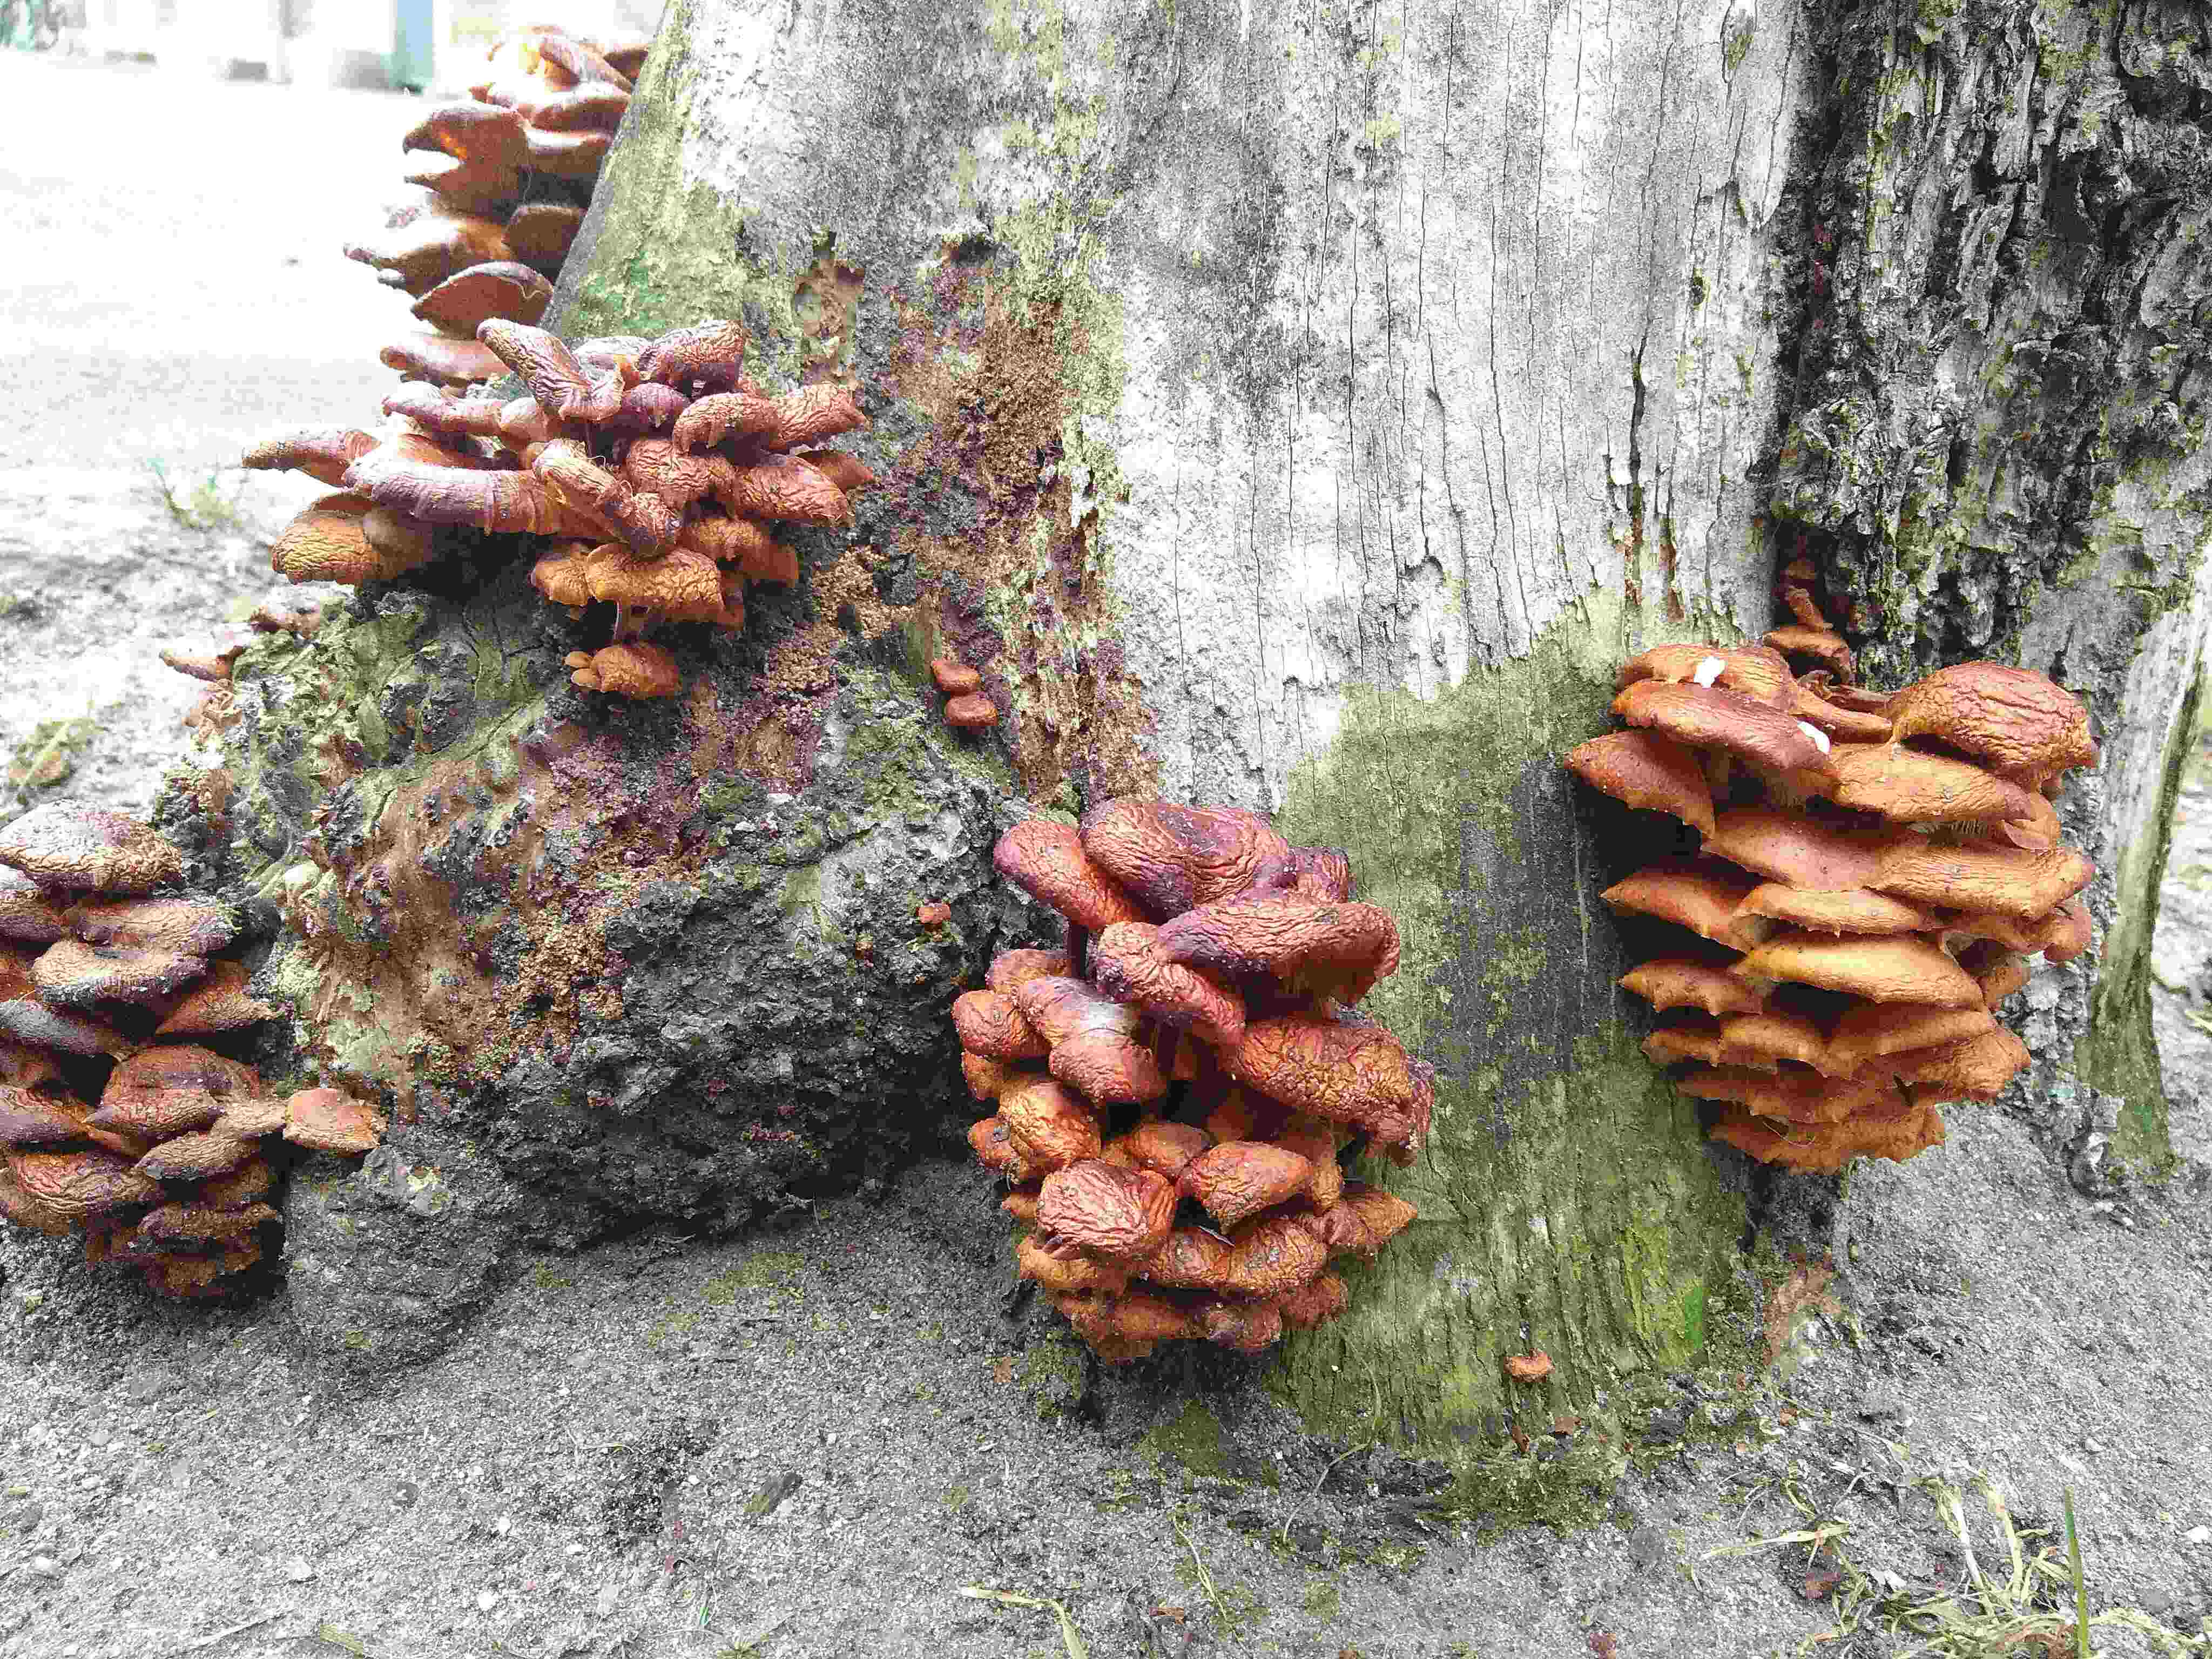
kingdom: Fungi
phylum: Basidiomycota
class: Agaricomycetes
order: Agaricales
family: Physalacriaceae
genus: Flammulina
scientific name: Flammulina
